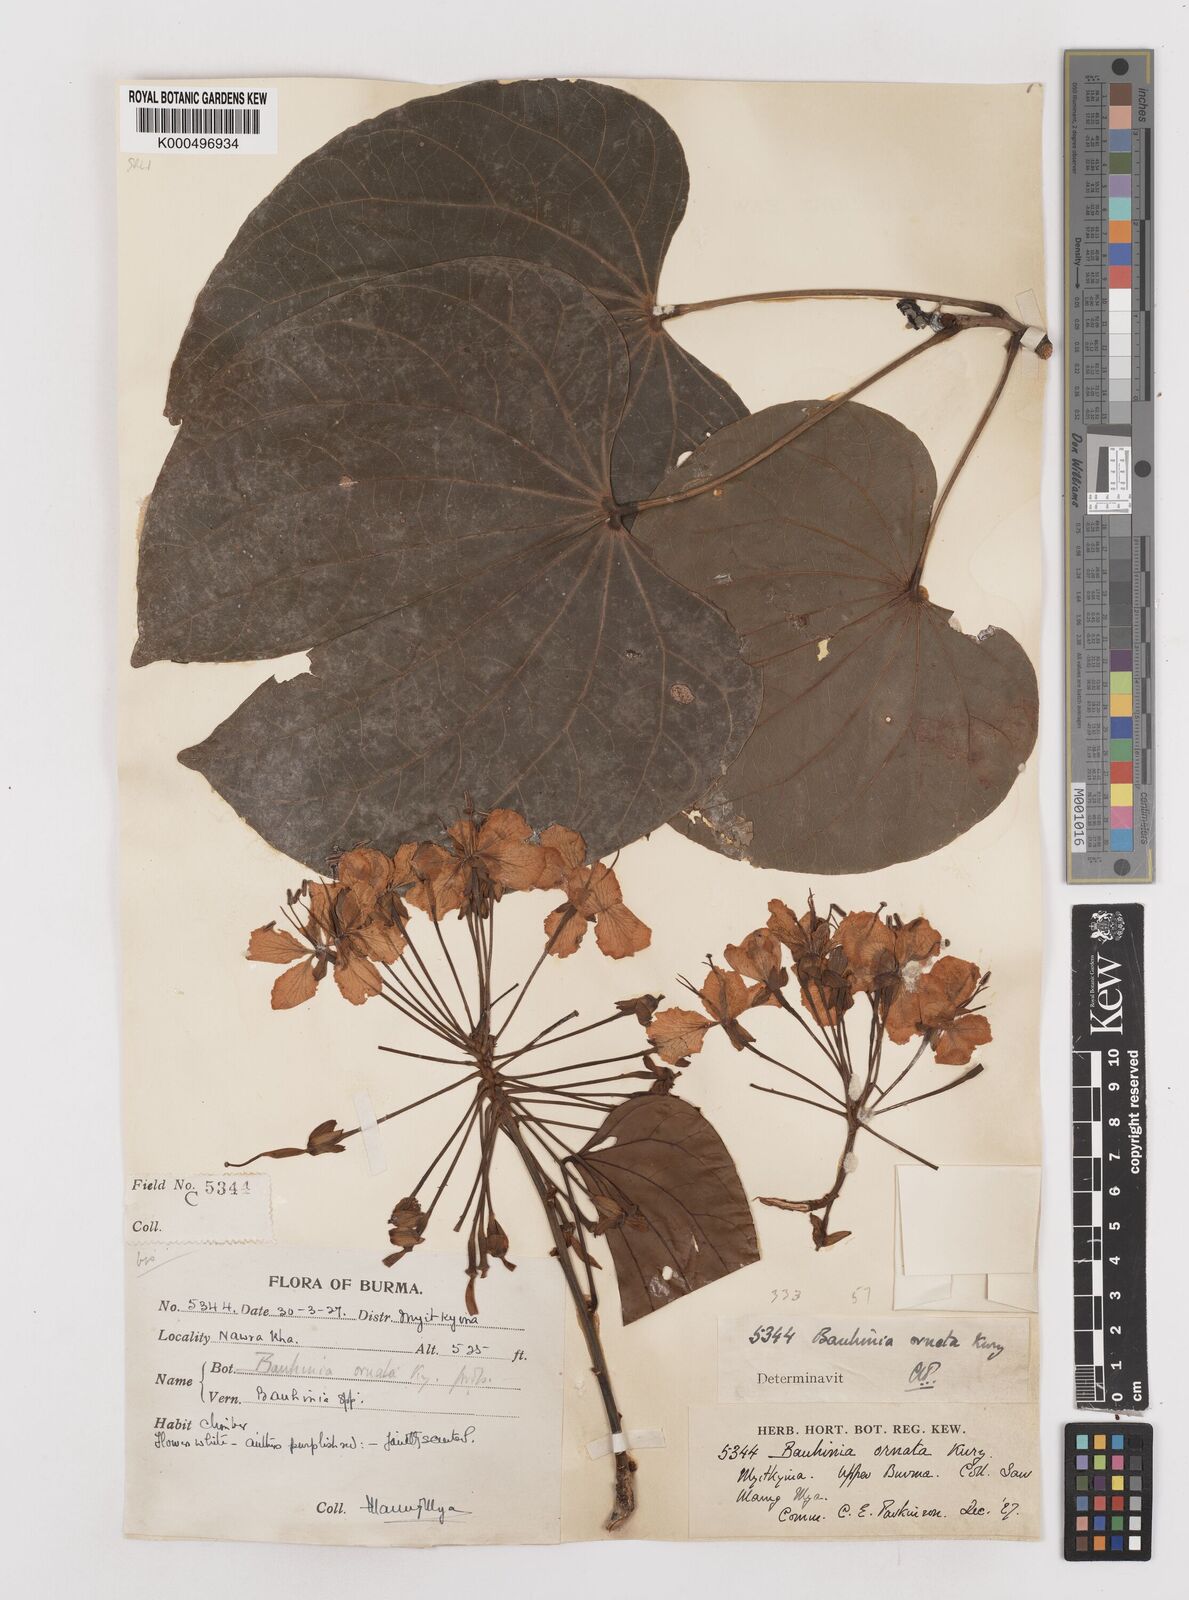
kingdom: Plantae
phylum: Tracheophyta
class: Magnoliopsida
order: Fabales
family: Fabaceae
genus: Phanera
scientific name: Phanera ornata
